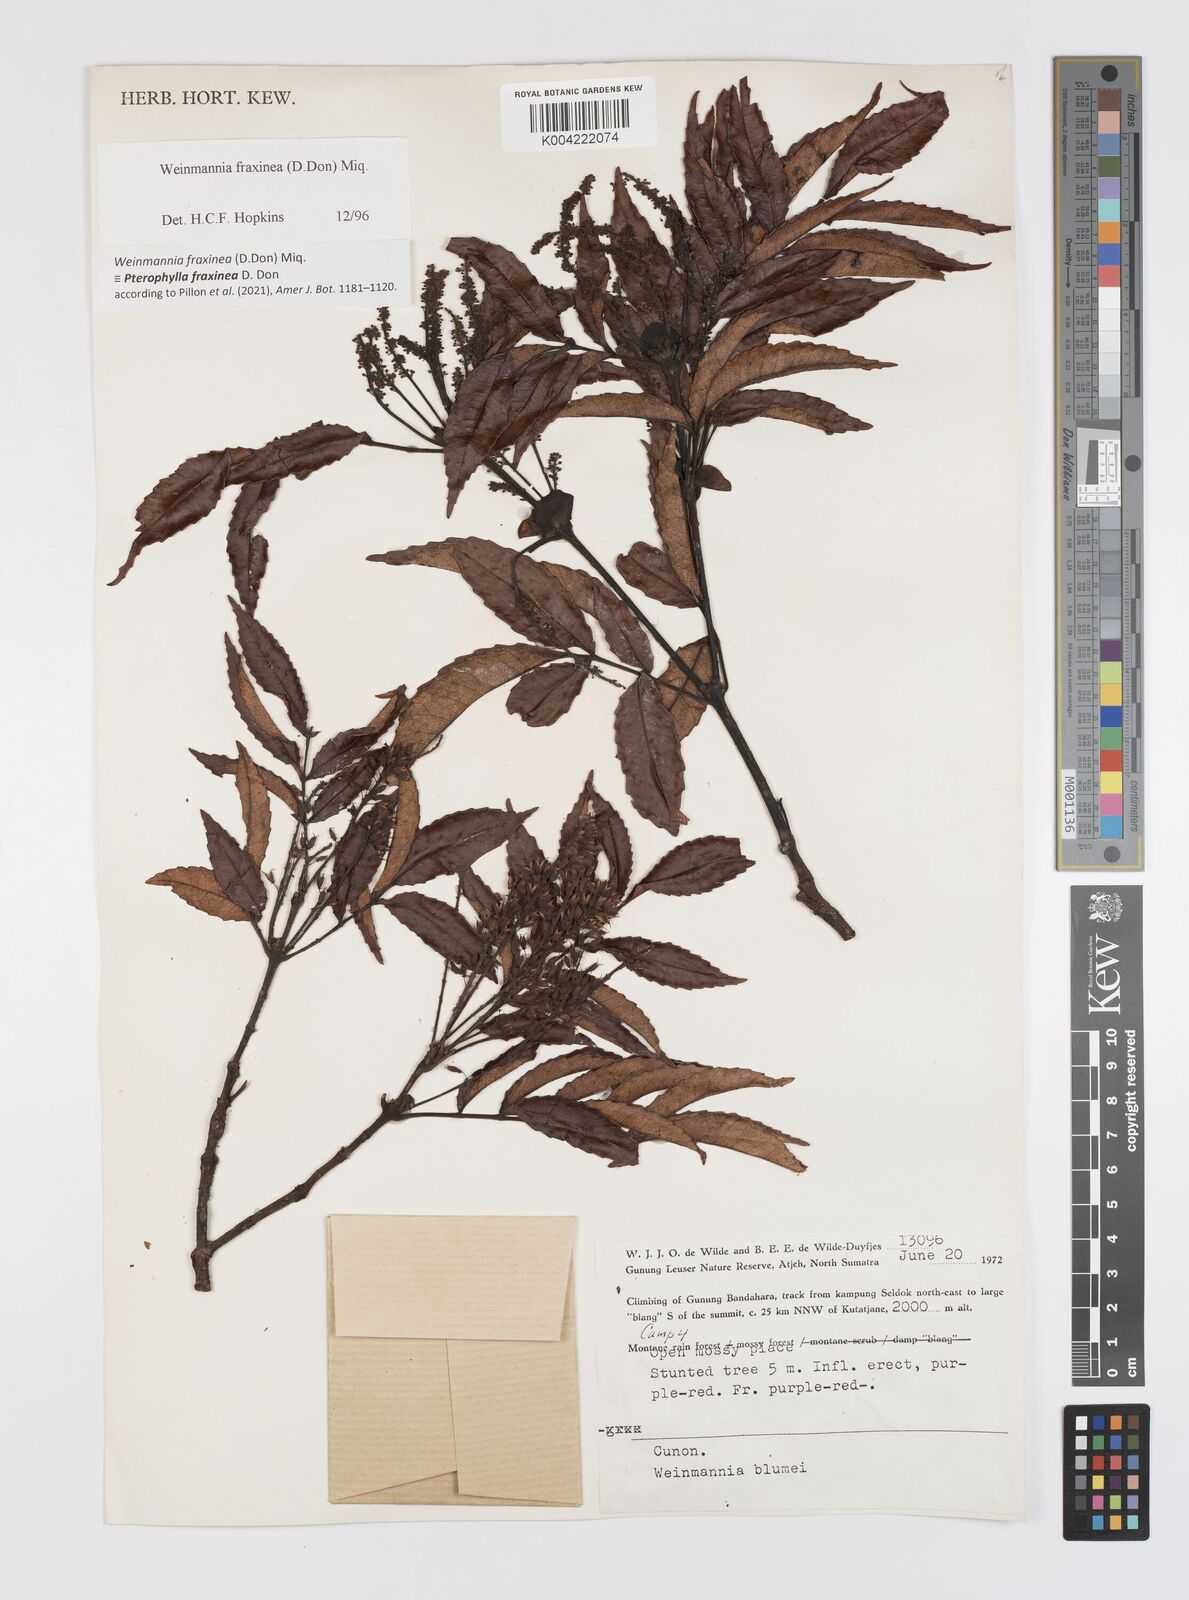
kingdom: Plantae
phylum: Tracheophyta
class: Magnoliopsida
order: Oxalidales
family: Cunoniaceae
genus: Pterophylla
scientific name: Pterophylla fraxinea
